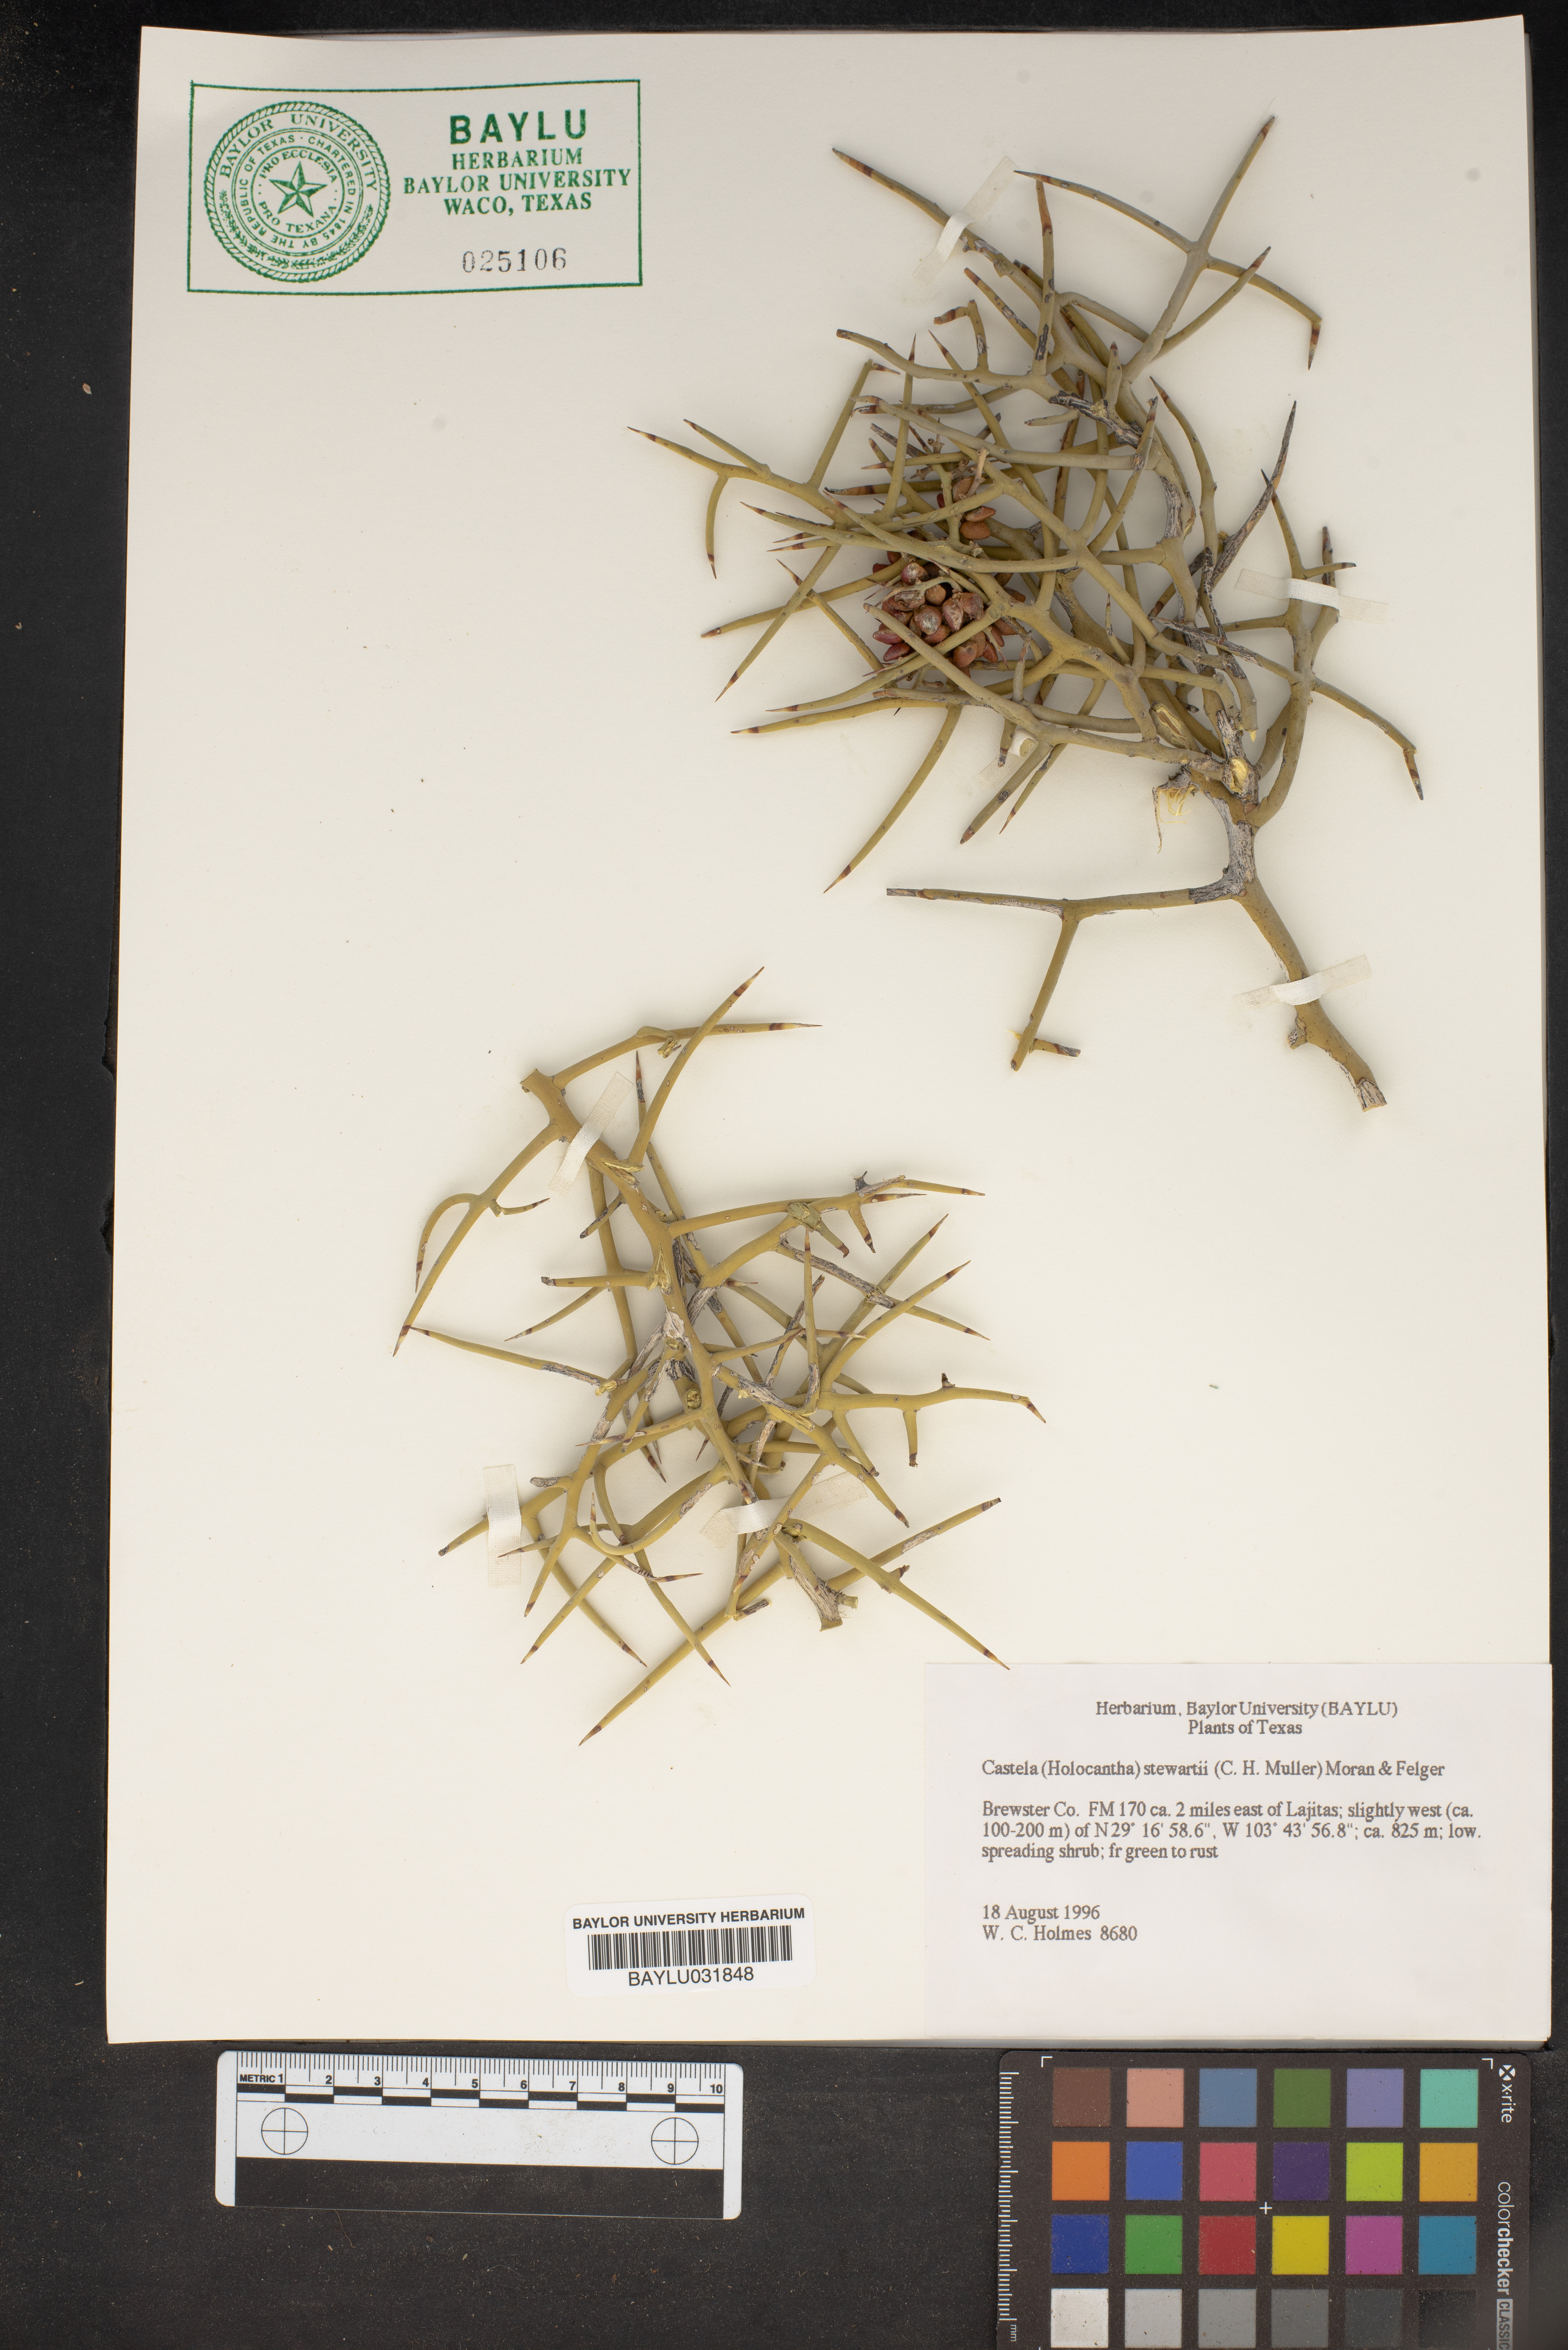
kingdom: Plantae
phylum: Tracheophyta
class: Magnoliopsida
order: Sapindales
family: Simaroubaceae
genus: Holacantha
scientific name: Holacantha stewartii
